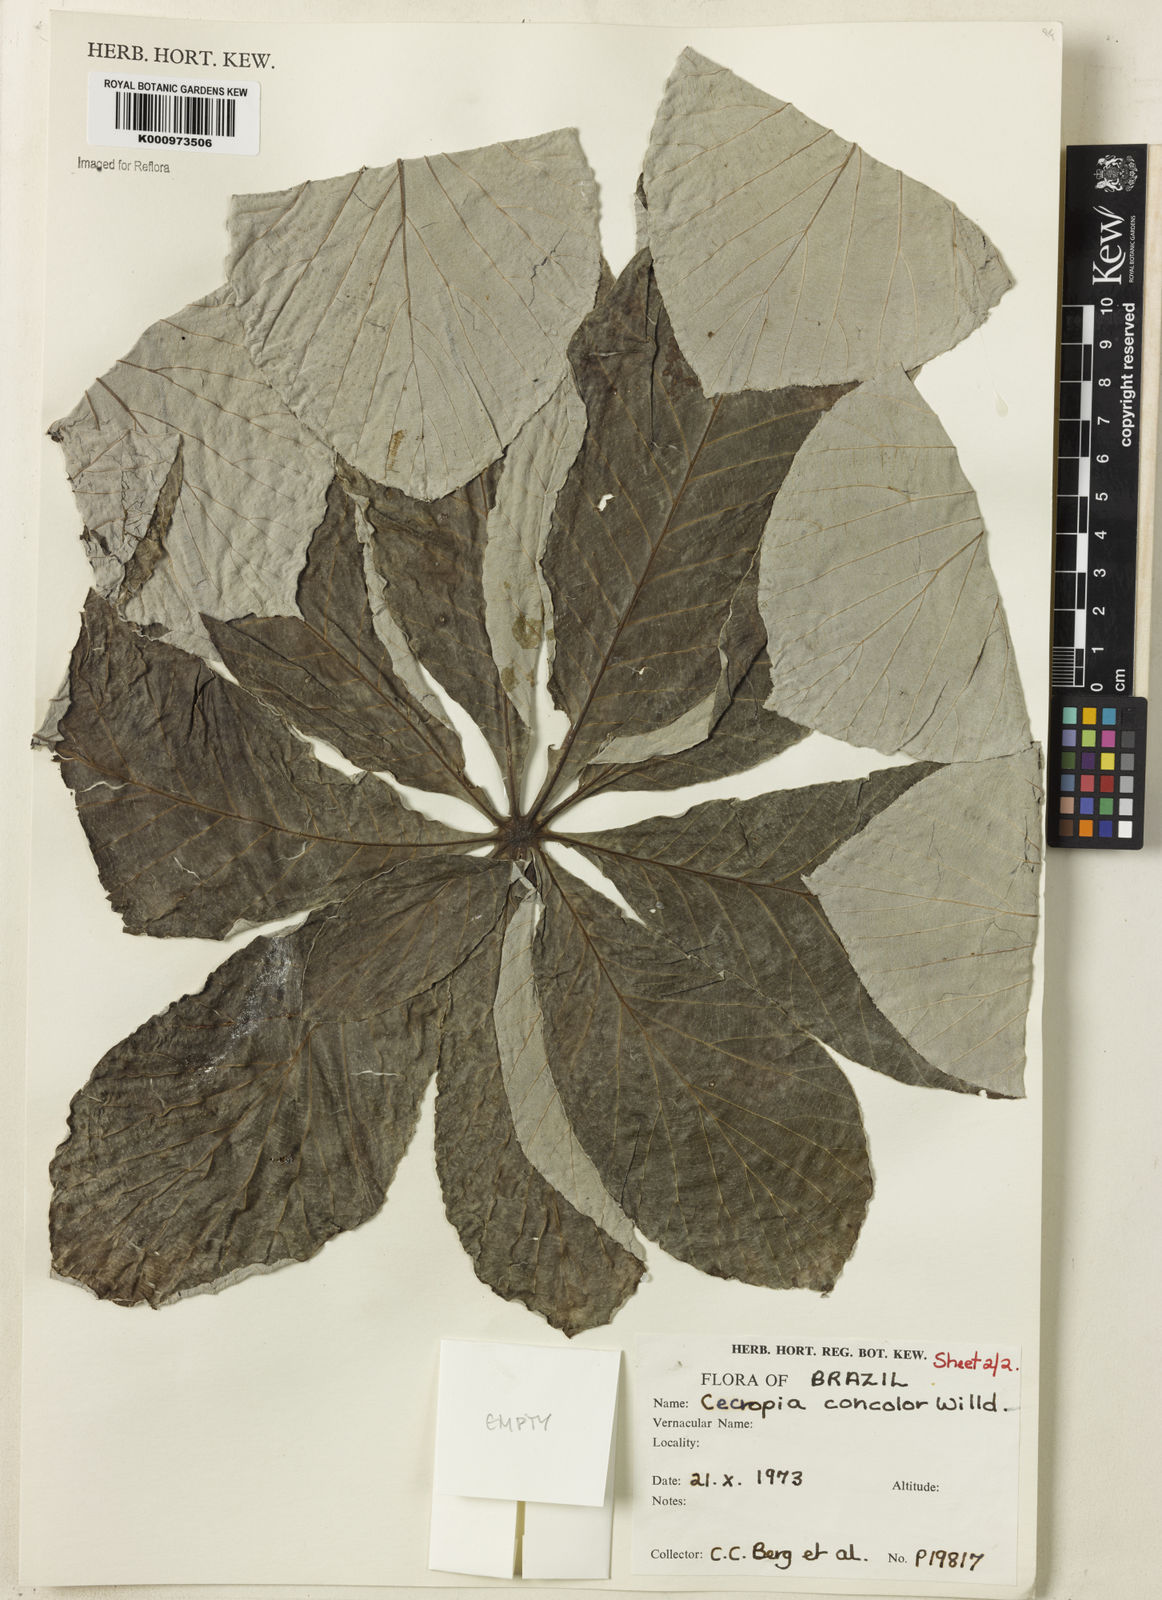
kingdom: Plantae
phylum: Tracheophyta
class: Magnoliopsida
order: Rosales
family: Urticaceae
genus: Cecropia
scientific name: Cecropia concolor
